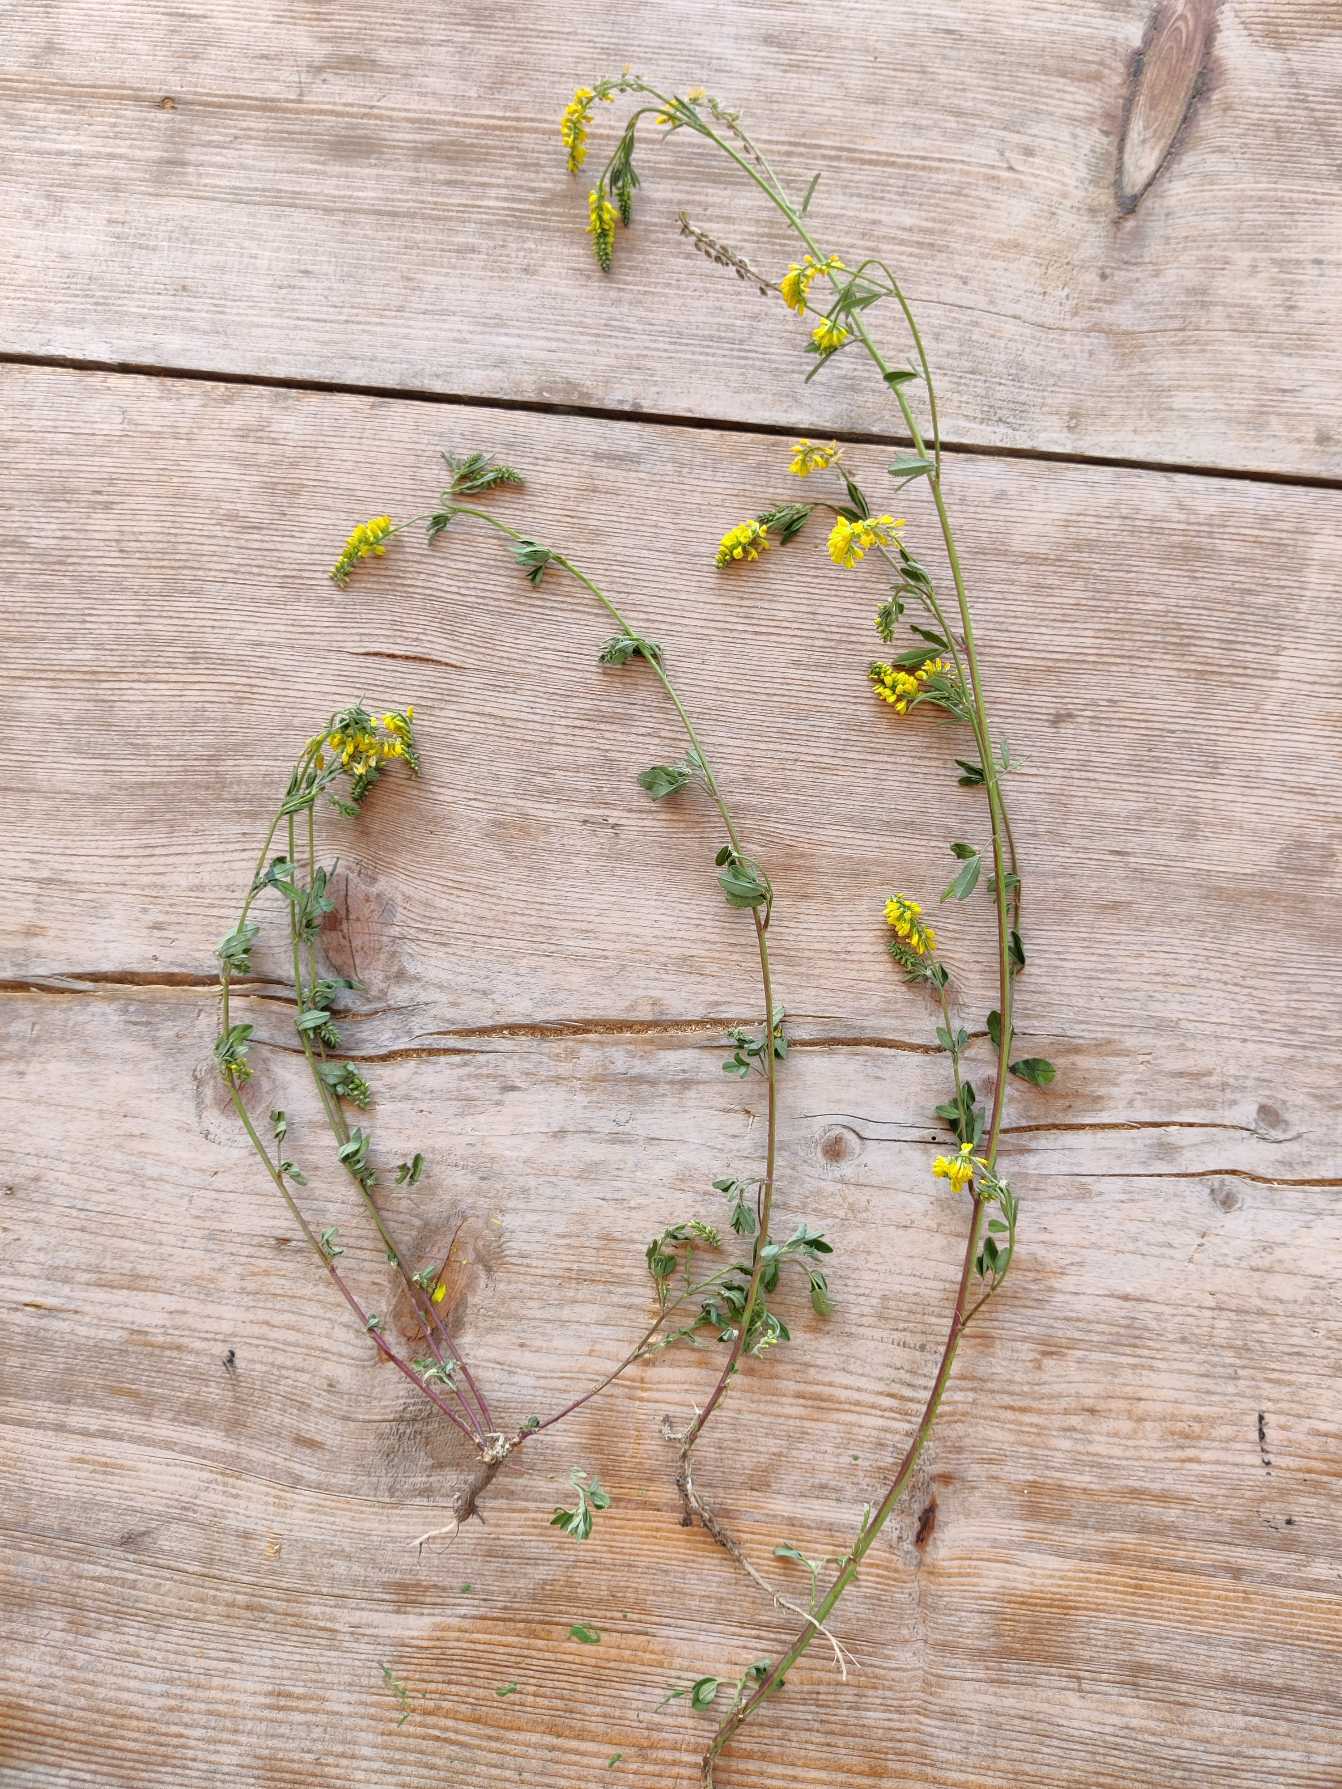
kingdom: Plantae
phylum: Tracheophyta
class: Magnoliopsida
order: Fabales
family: Fabaceae
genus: Melilotus
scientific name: Melilotus altissimus
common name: Høj stenkløver
